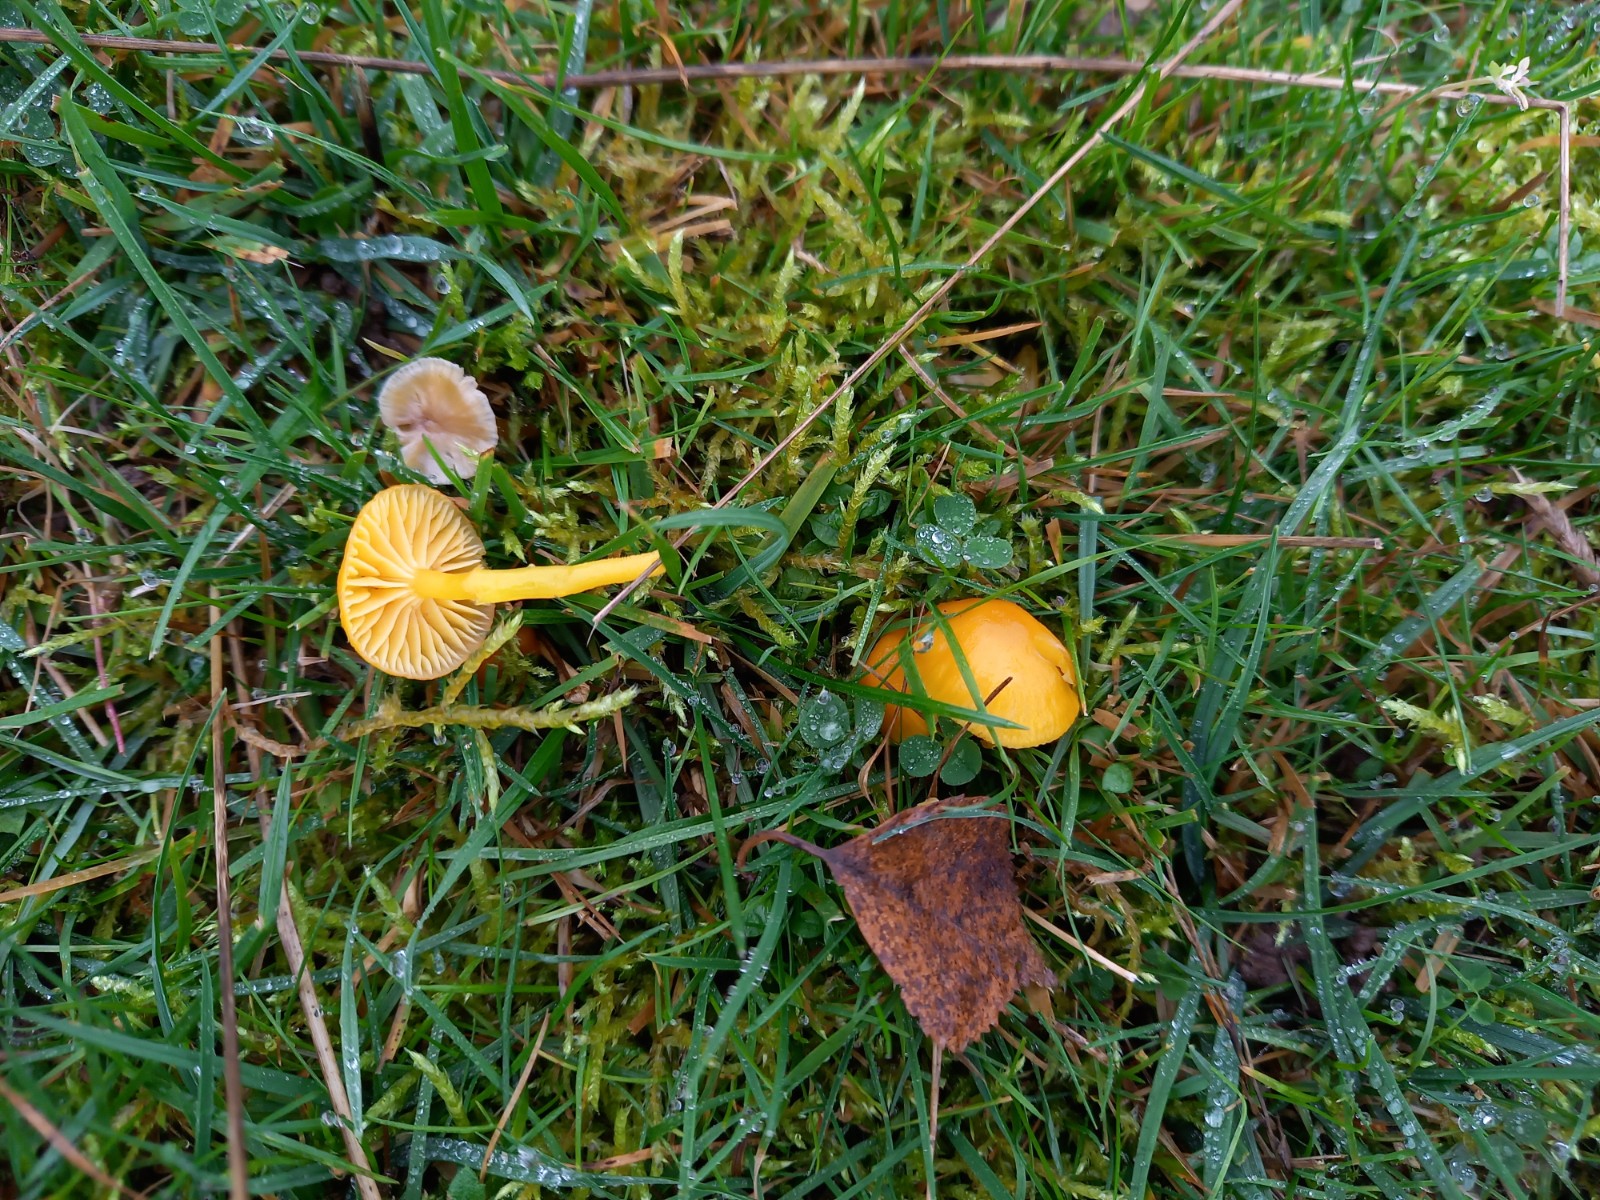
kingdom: Fungi
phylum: Basidiomycota
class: Agaricomycetes
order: Agaricales
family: Hygrophoraceae
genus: Hygrocybe
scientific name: Hygrocybe ceracea
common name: voksgul vokshat
